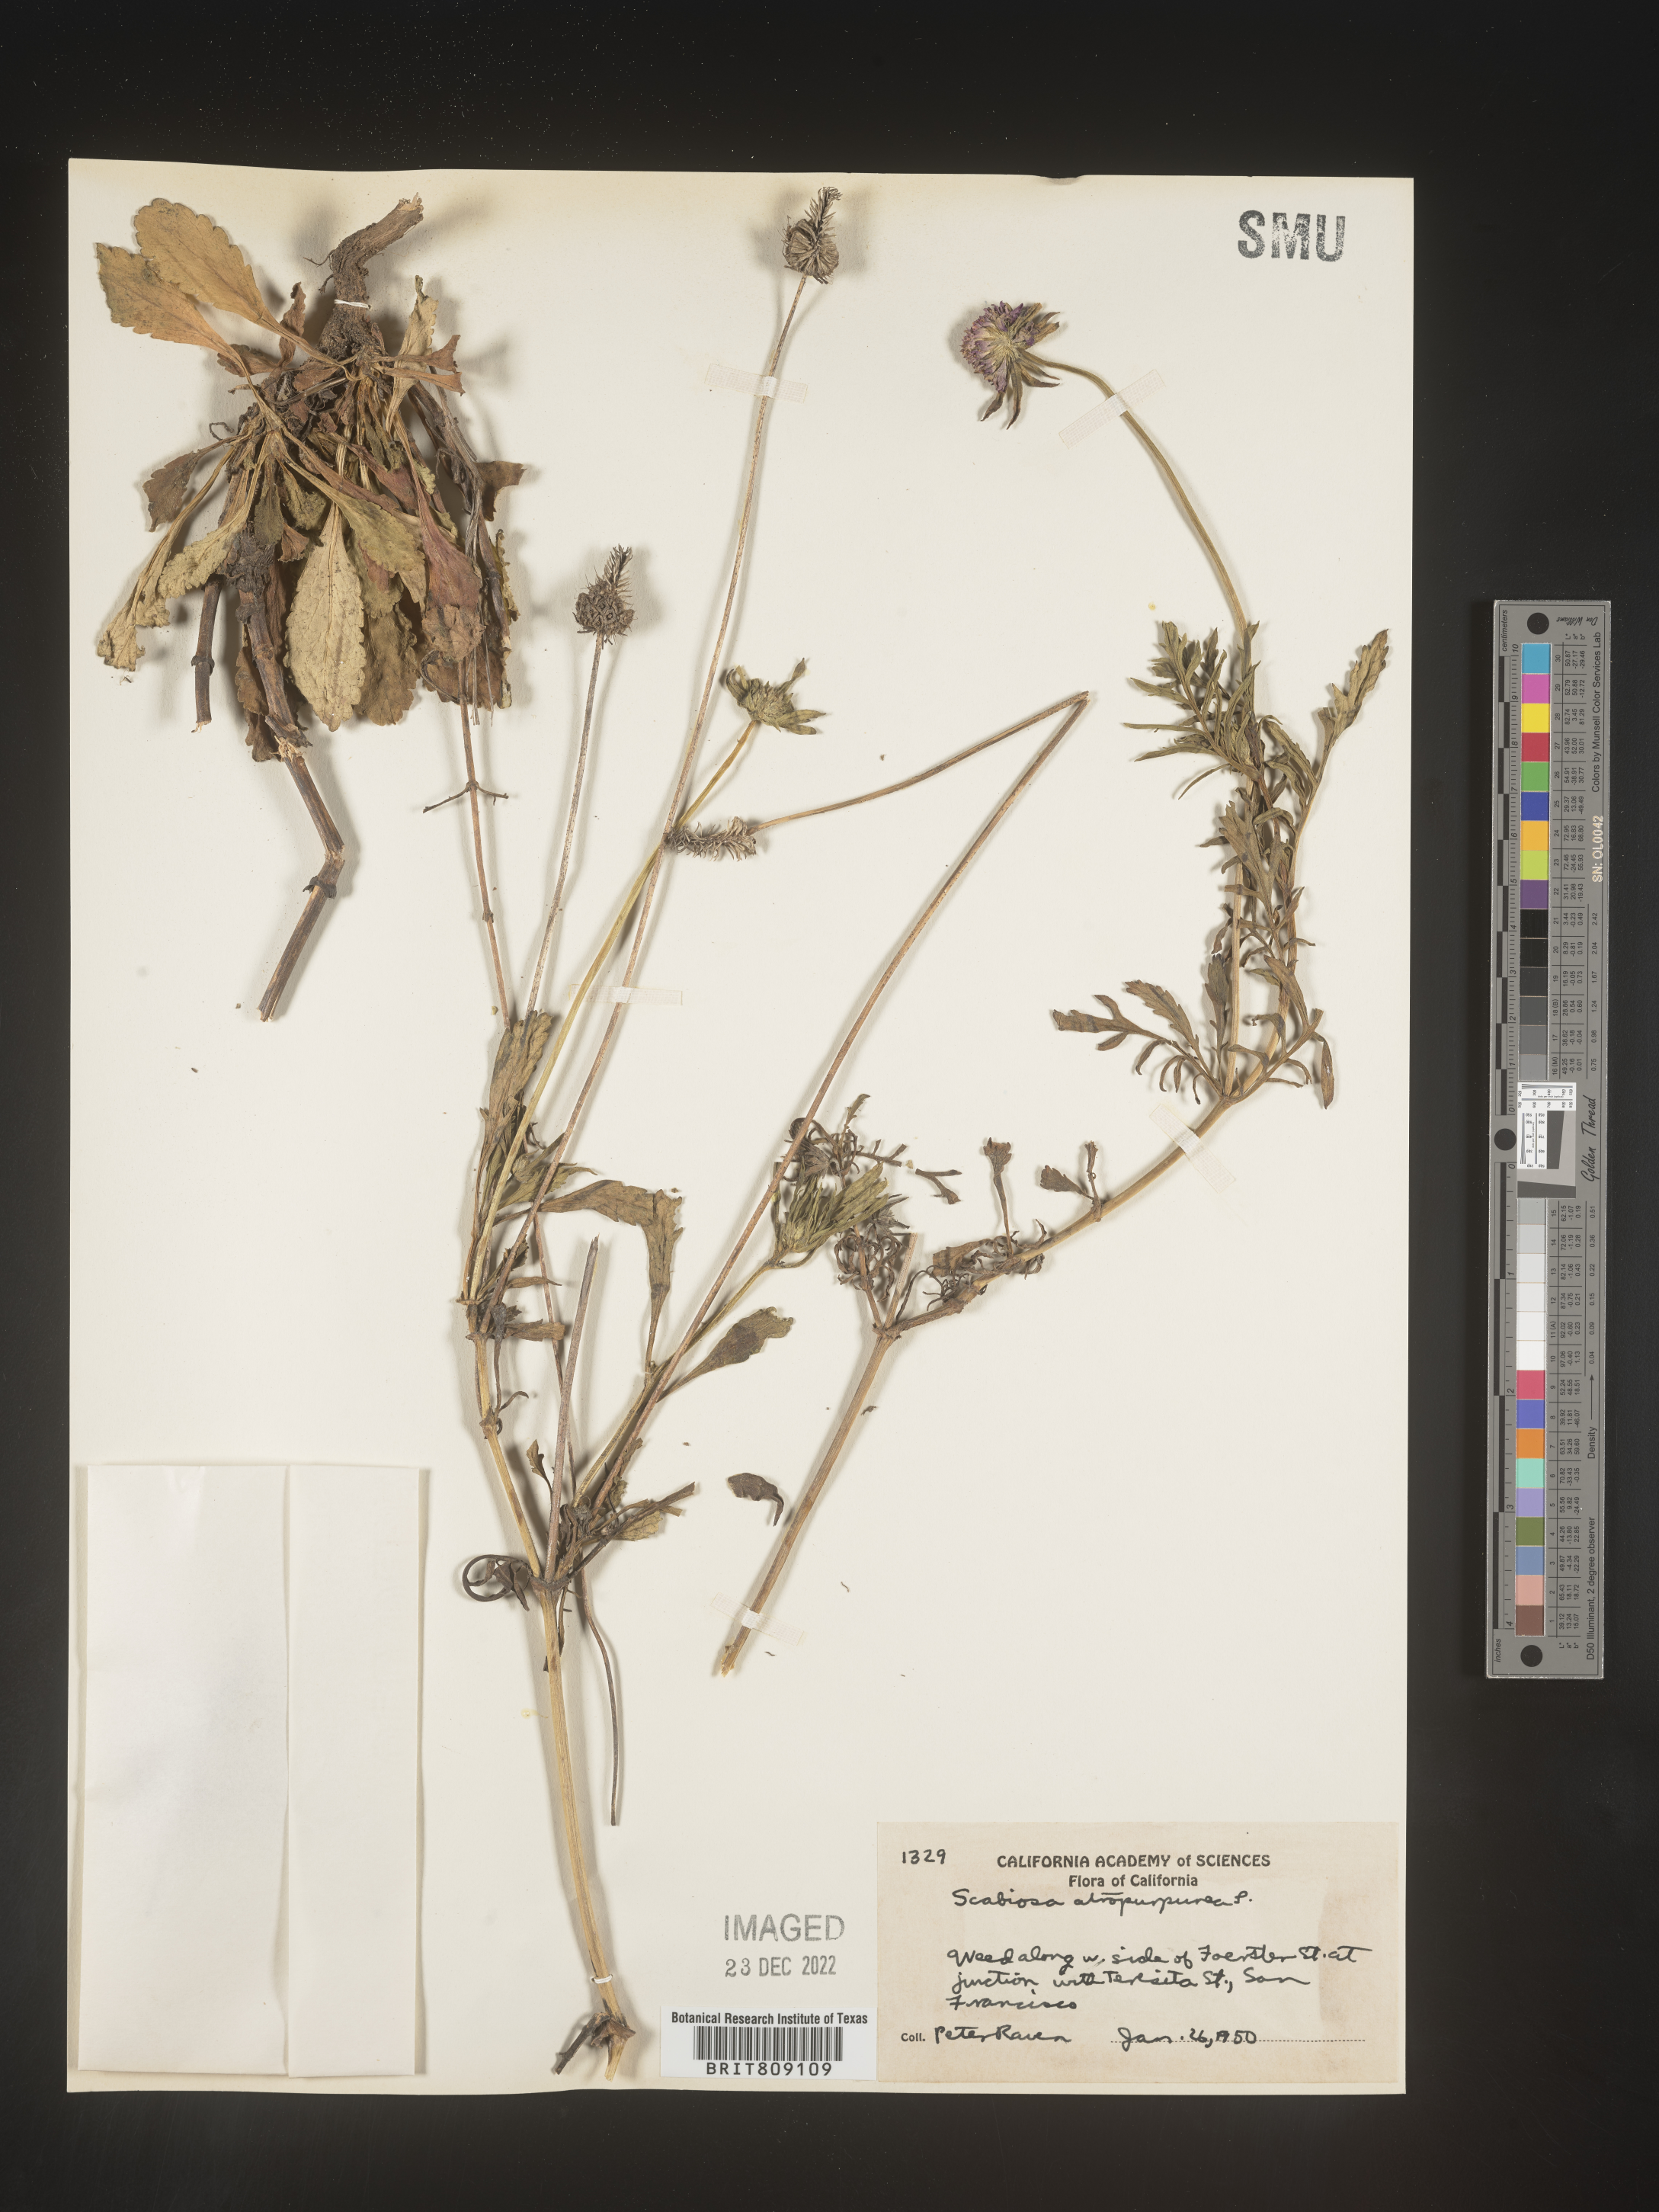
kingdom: Plantae
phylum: Tracheophyta
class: Magnoliopsida
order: Dipsacales
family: Caprifoliaceae
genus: Scabiosa
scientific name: Scabiosa
